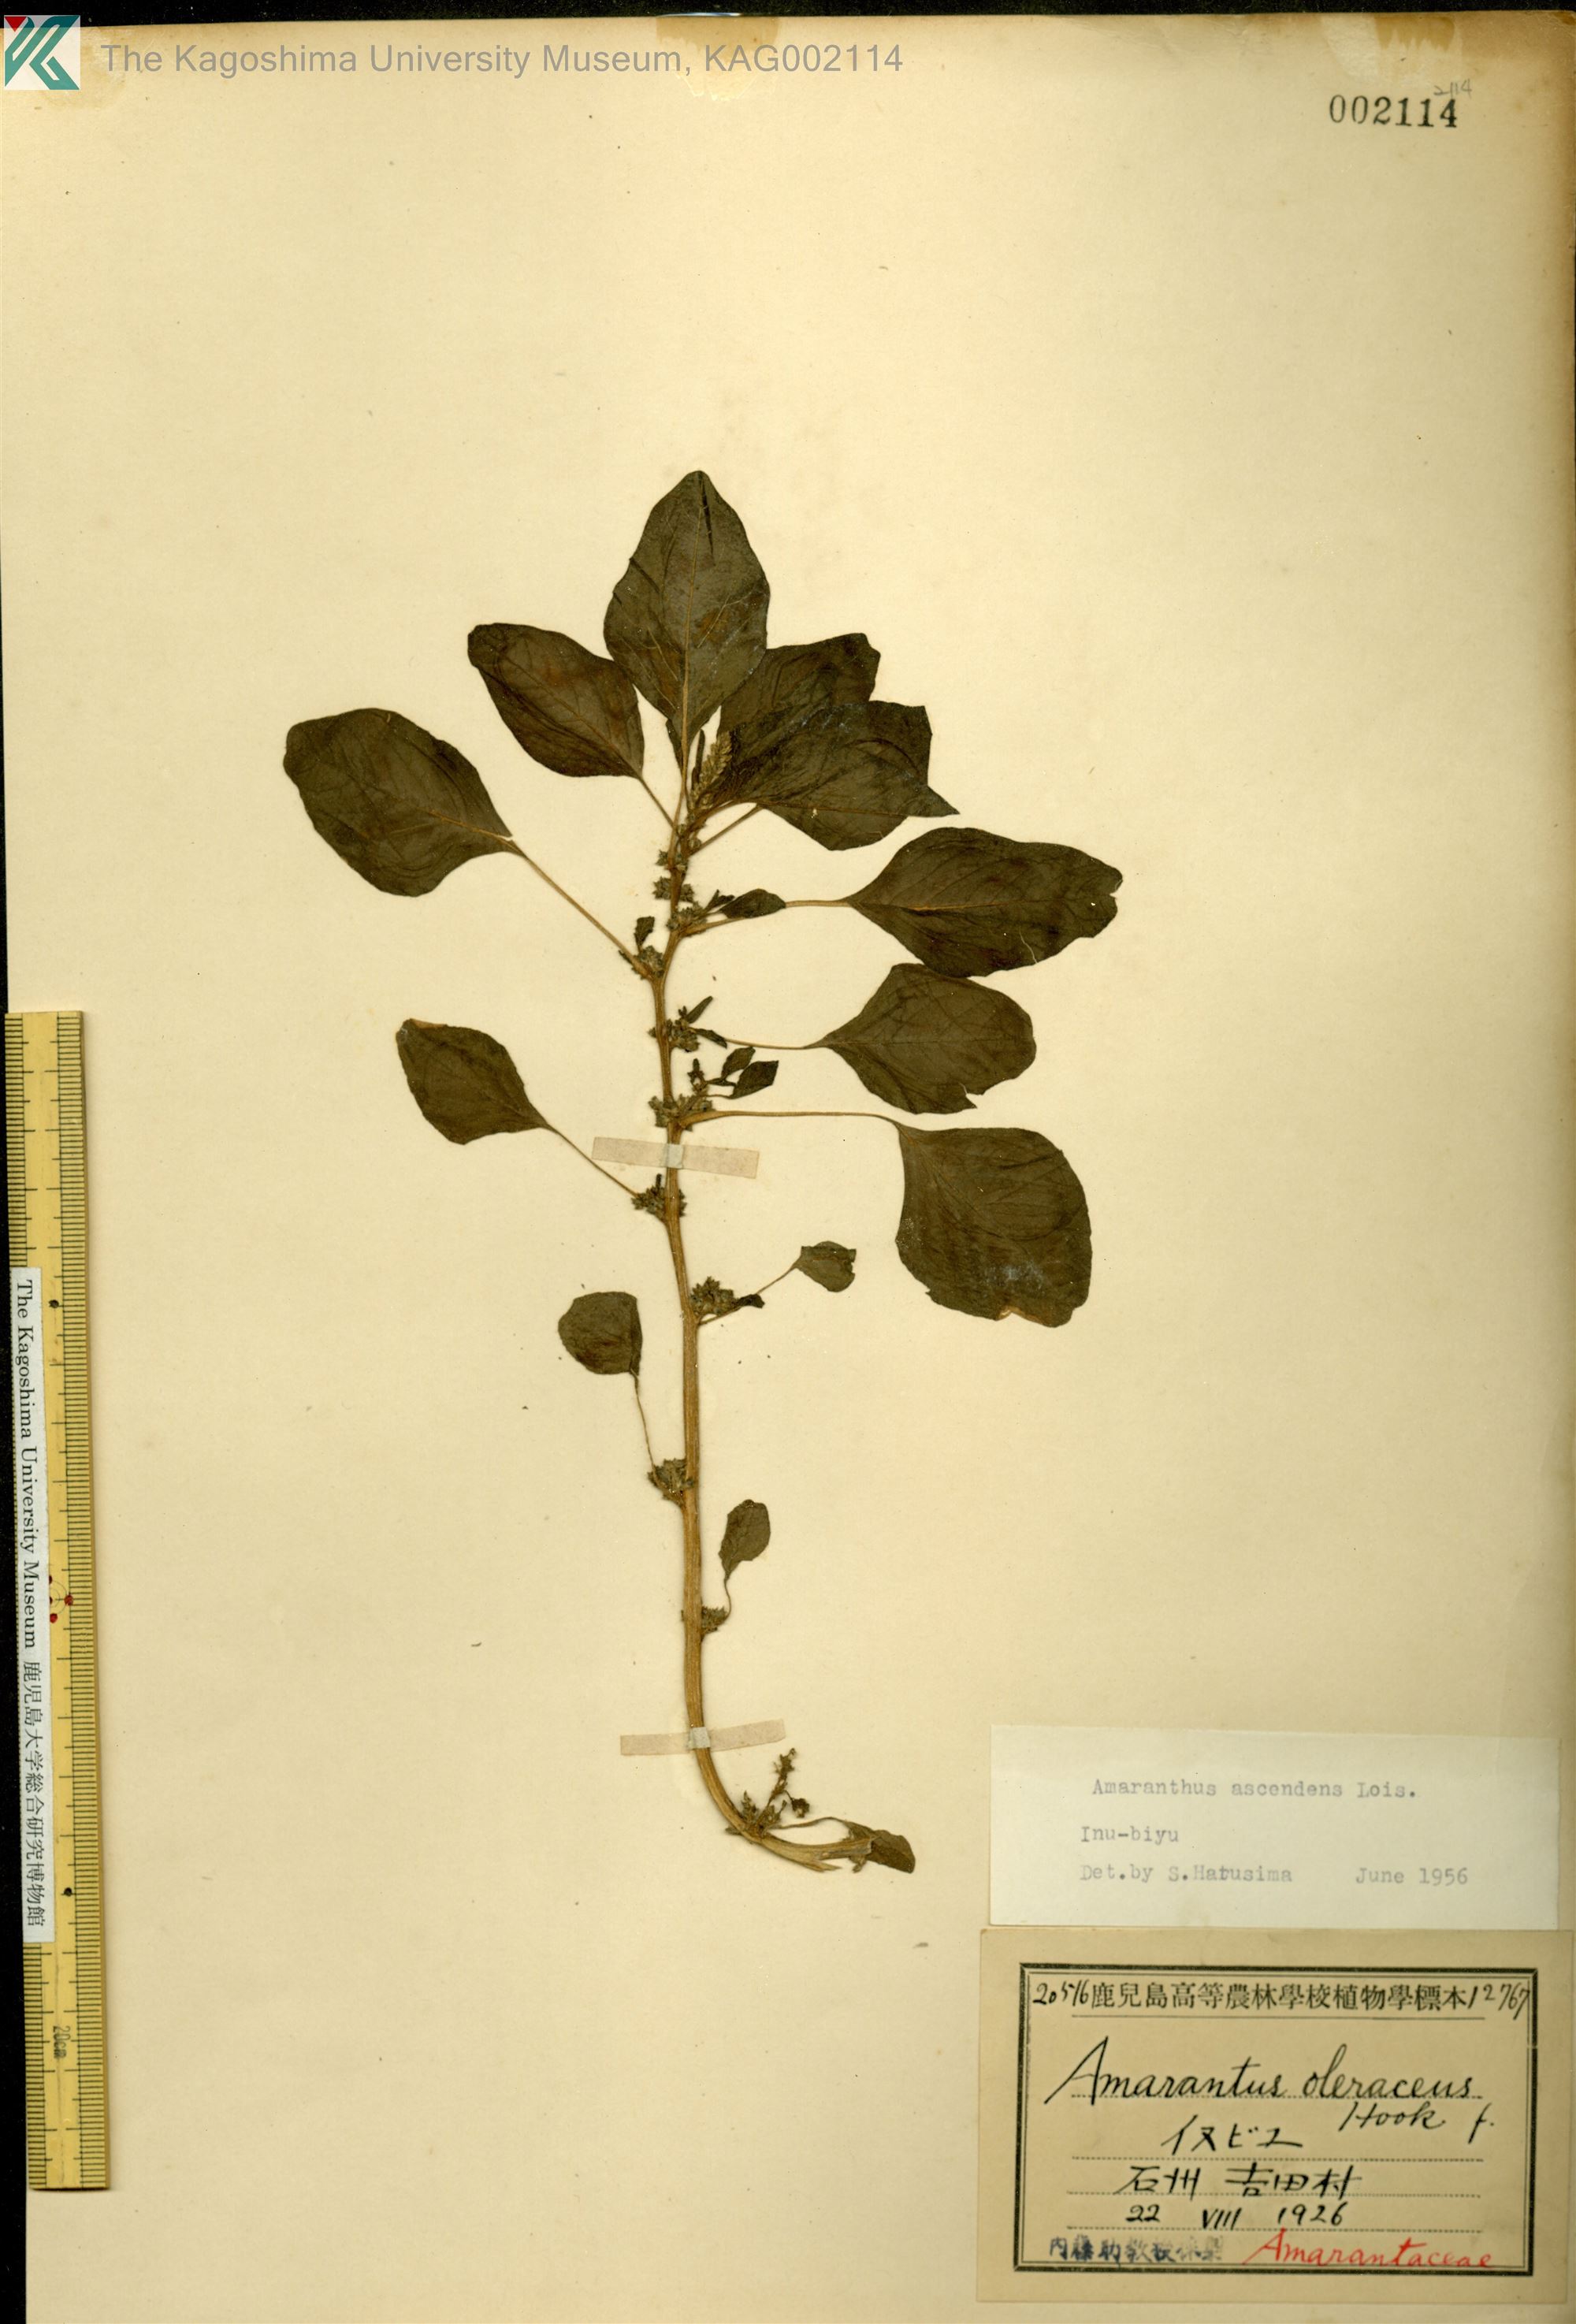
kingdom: Plantae
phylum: Tracheophyta
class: Magnoliopsida
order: Caryophyllales
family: Amaranthaceae
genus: Amaranthus
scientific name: Amaranthus blitum
